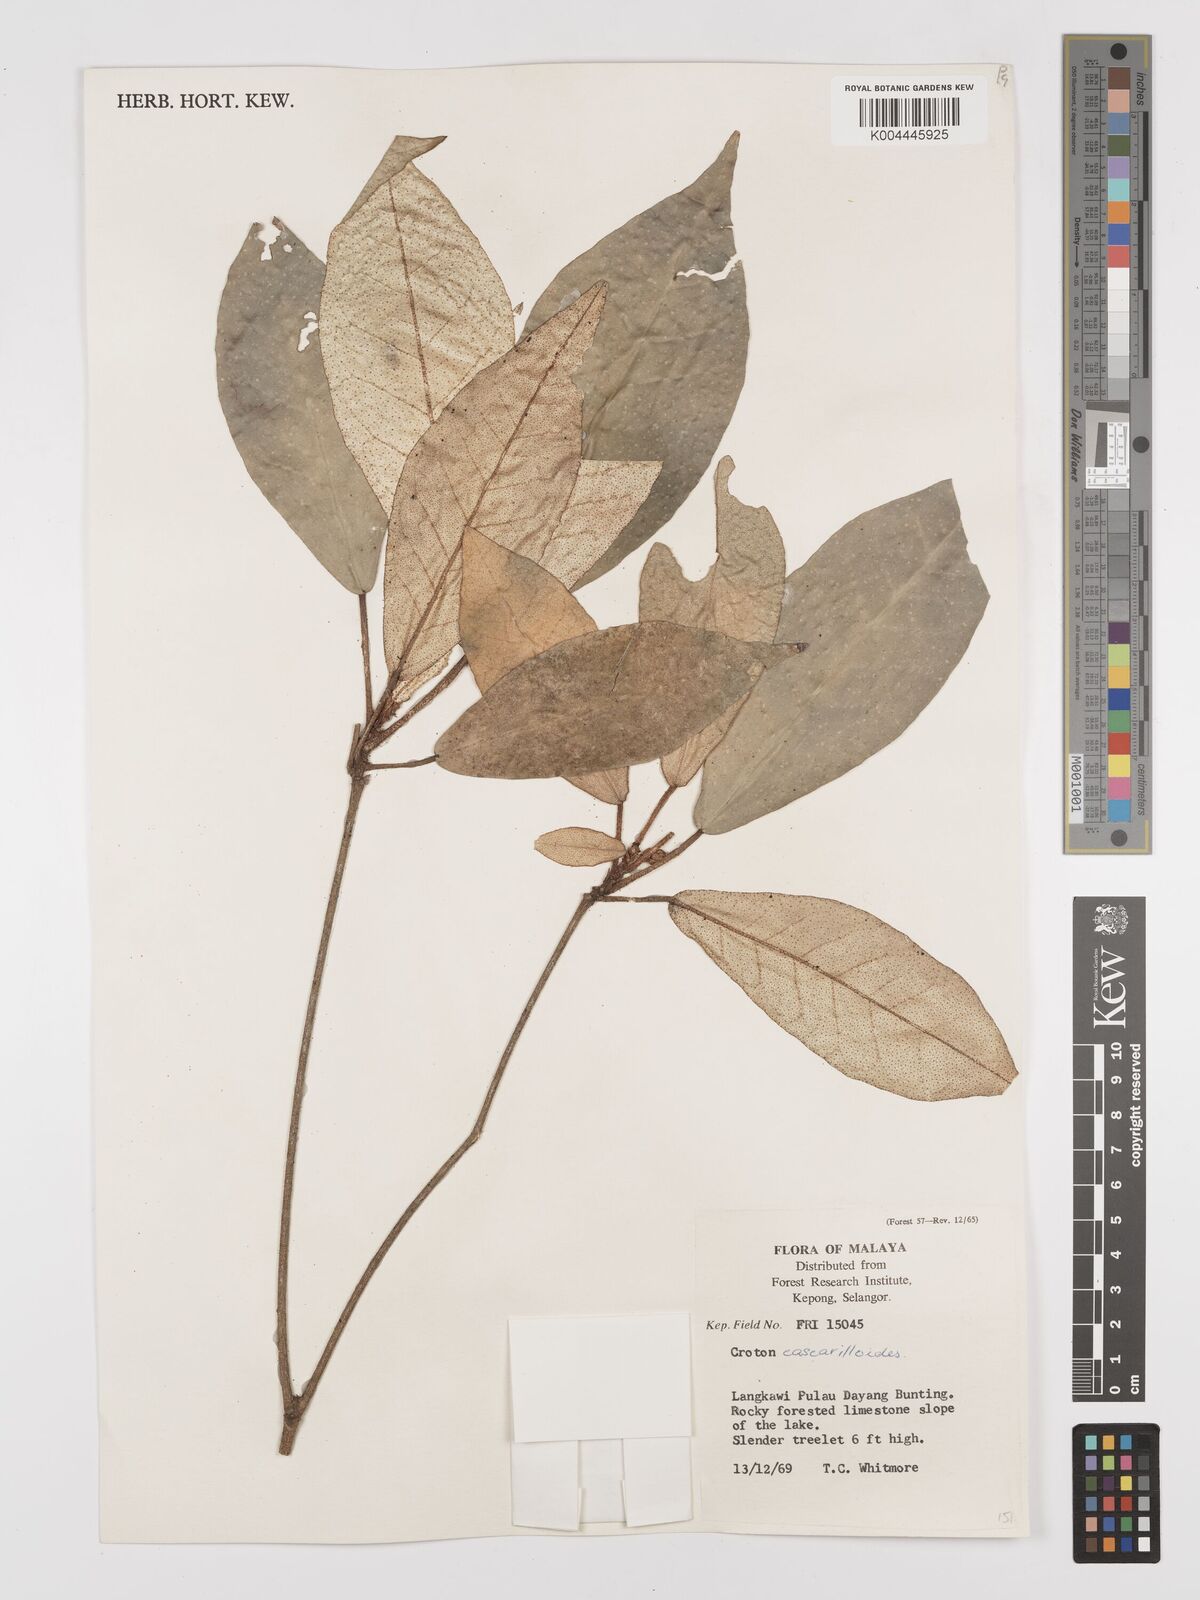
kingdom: Plantae
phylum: Tracheophyta
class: Magnoliopsida
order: Malpighiales
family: Euphorbiaceae
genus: Croton
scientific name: Croton cascarilloides
